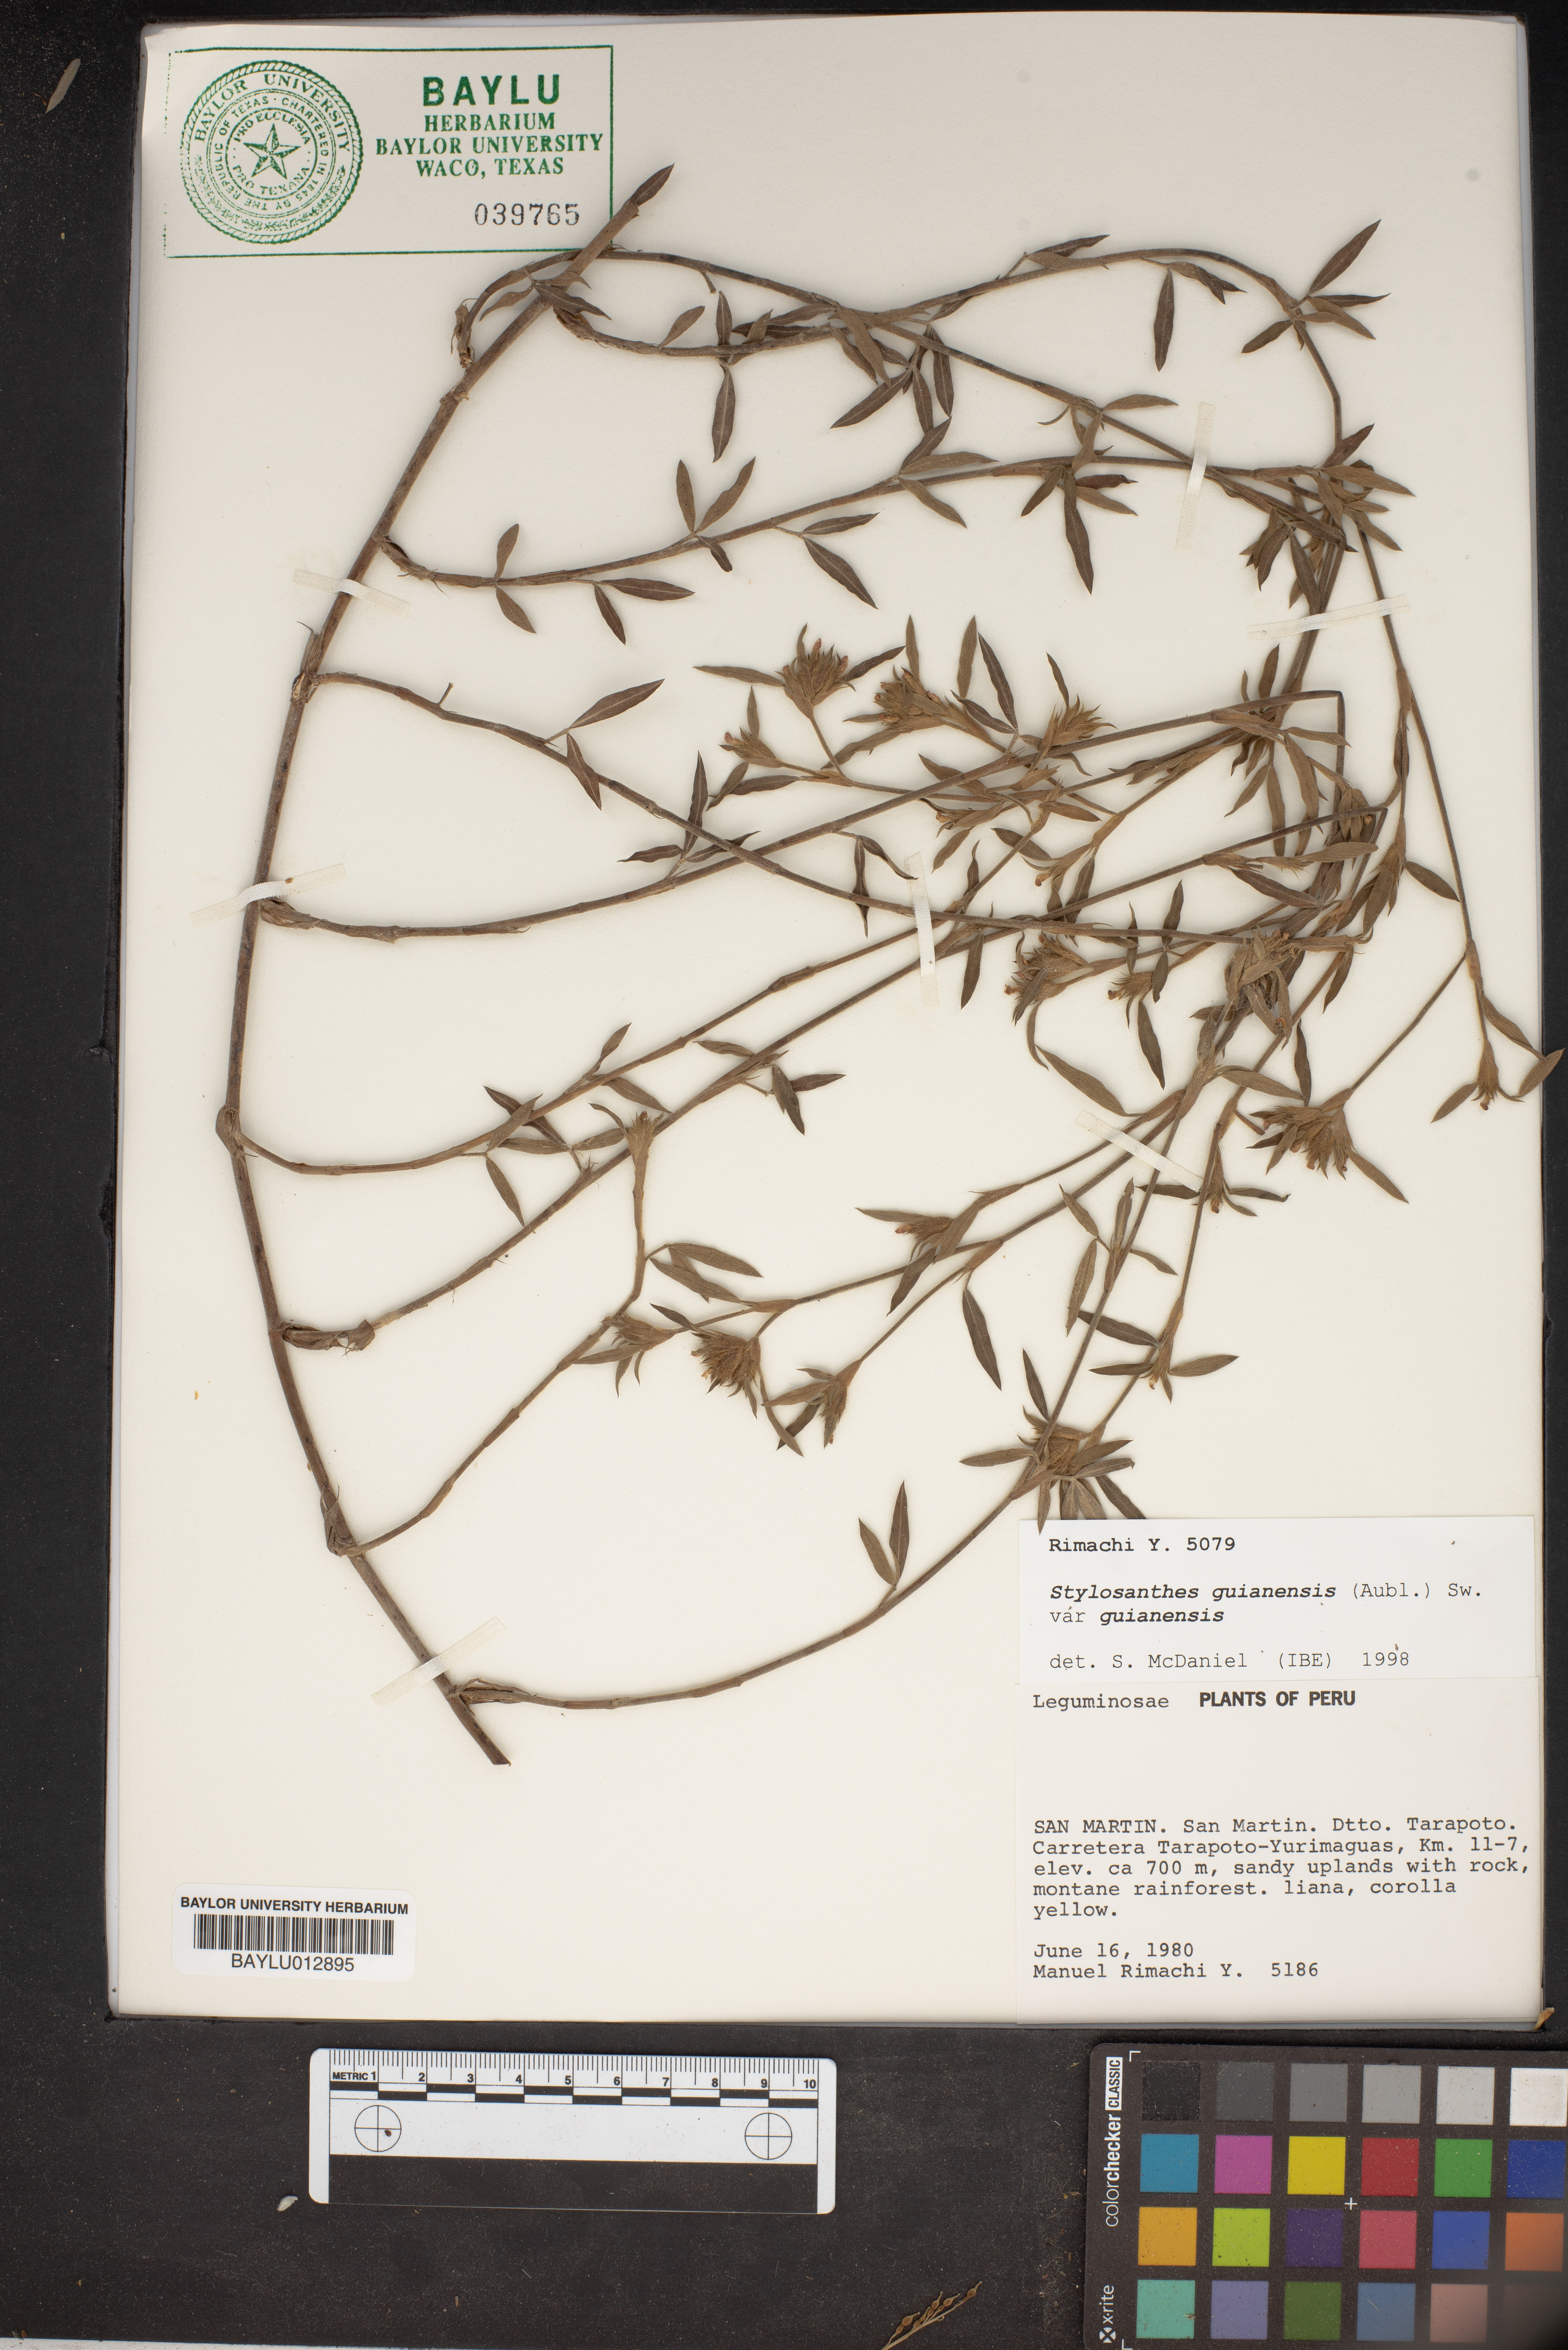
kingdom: Plantae
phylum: Tracheophyta
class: Magnoliopsida
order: Fabales
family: Fabaceae
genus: Stylosanthes
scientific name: Stylosanthes guianensis
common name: Pencil flower
